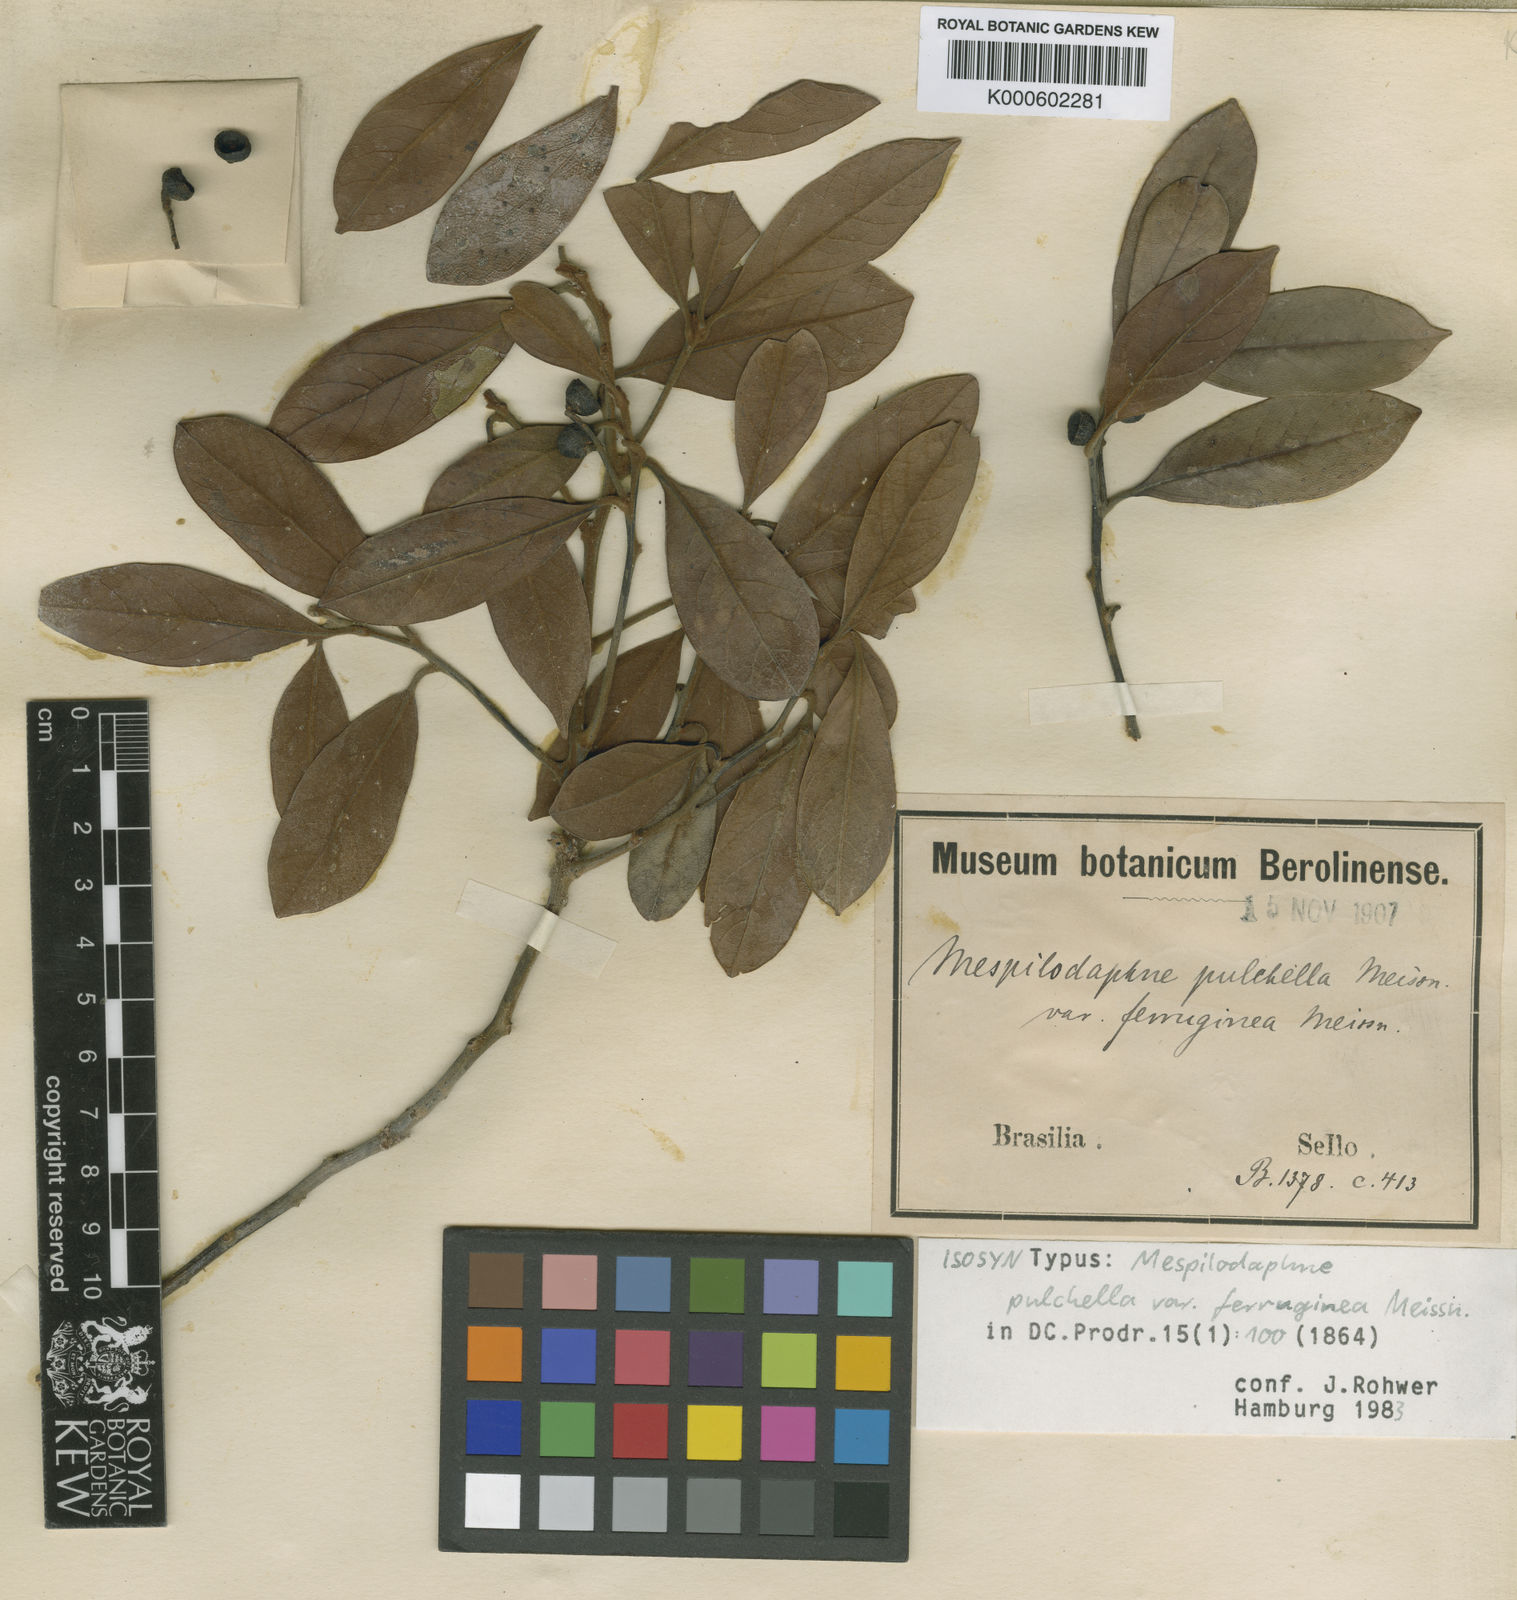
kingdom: Plantae
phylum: Tracheophyta
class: Magnoliopsida
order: Laurales
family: Lauraceae
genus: Mespilodaphne
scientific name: Mespilodaphne pulchella
